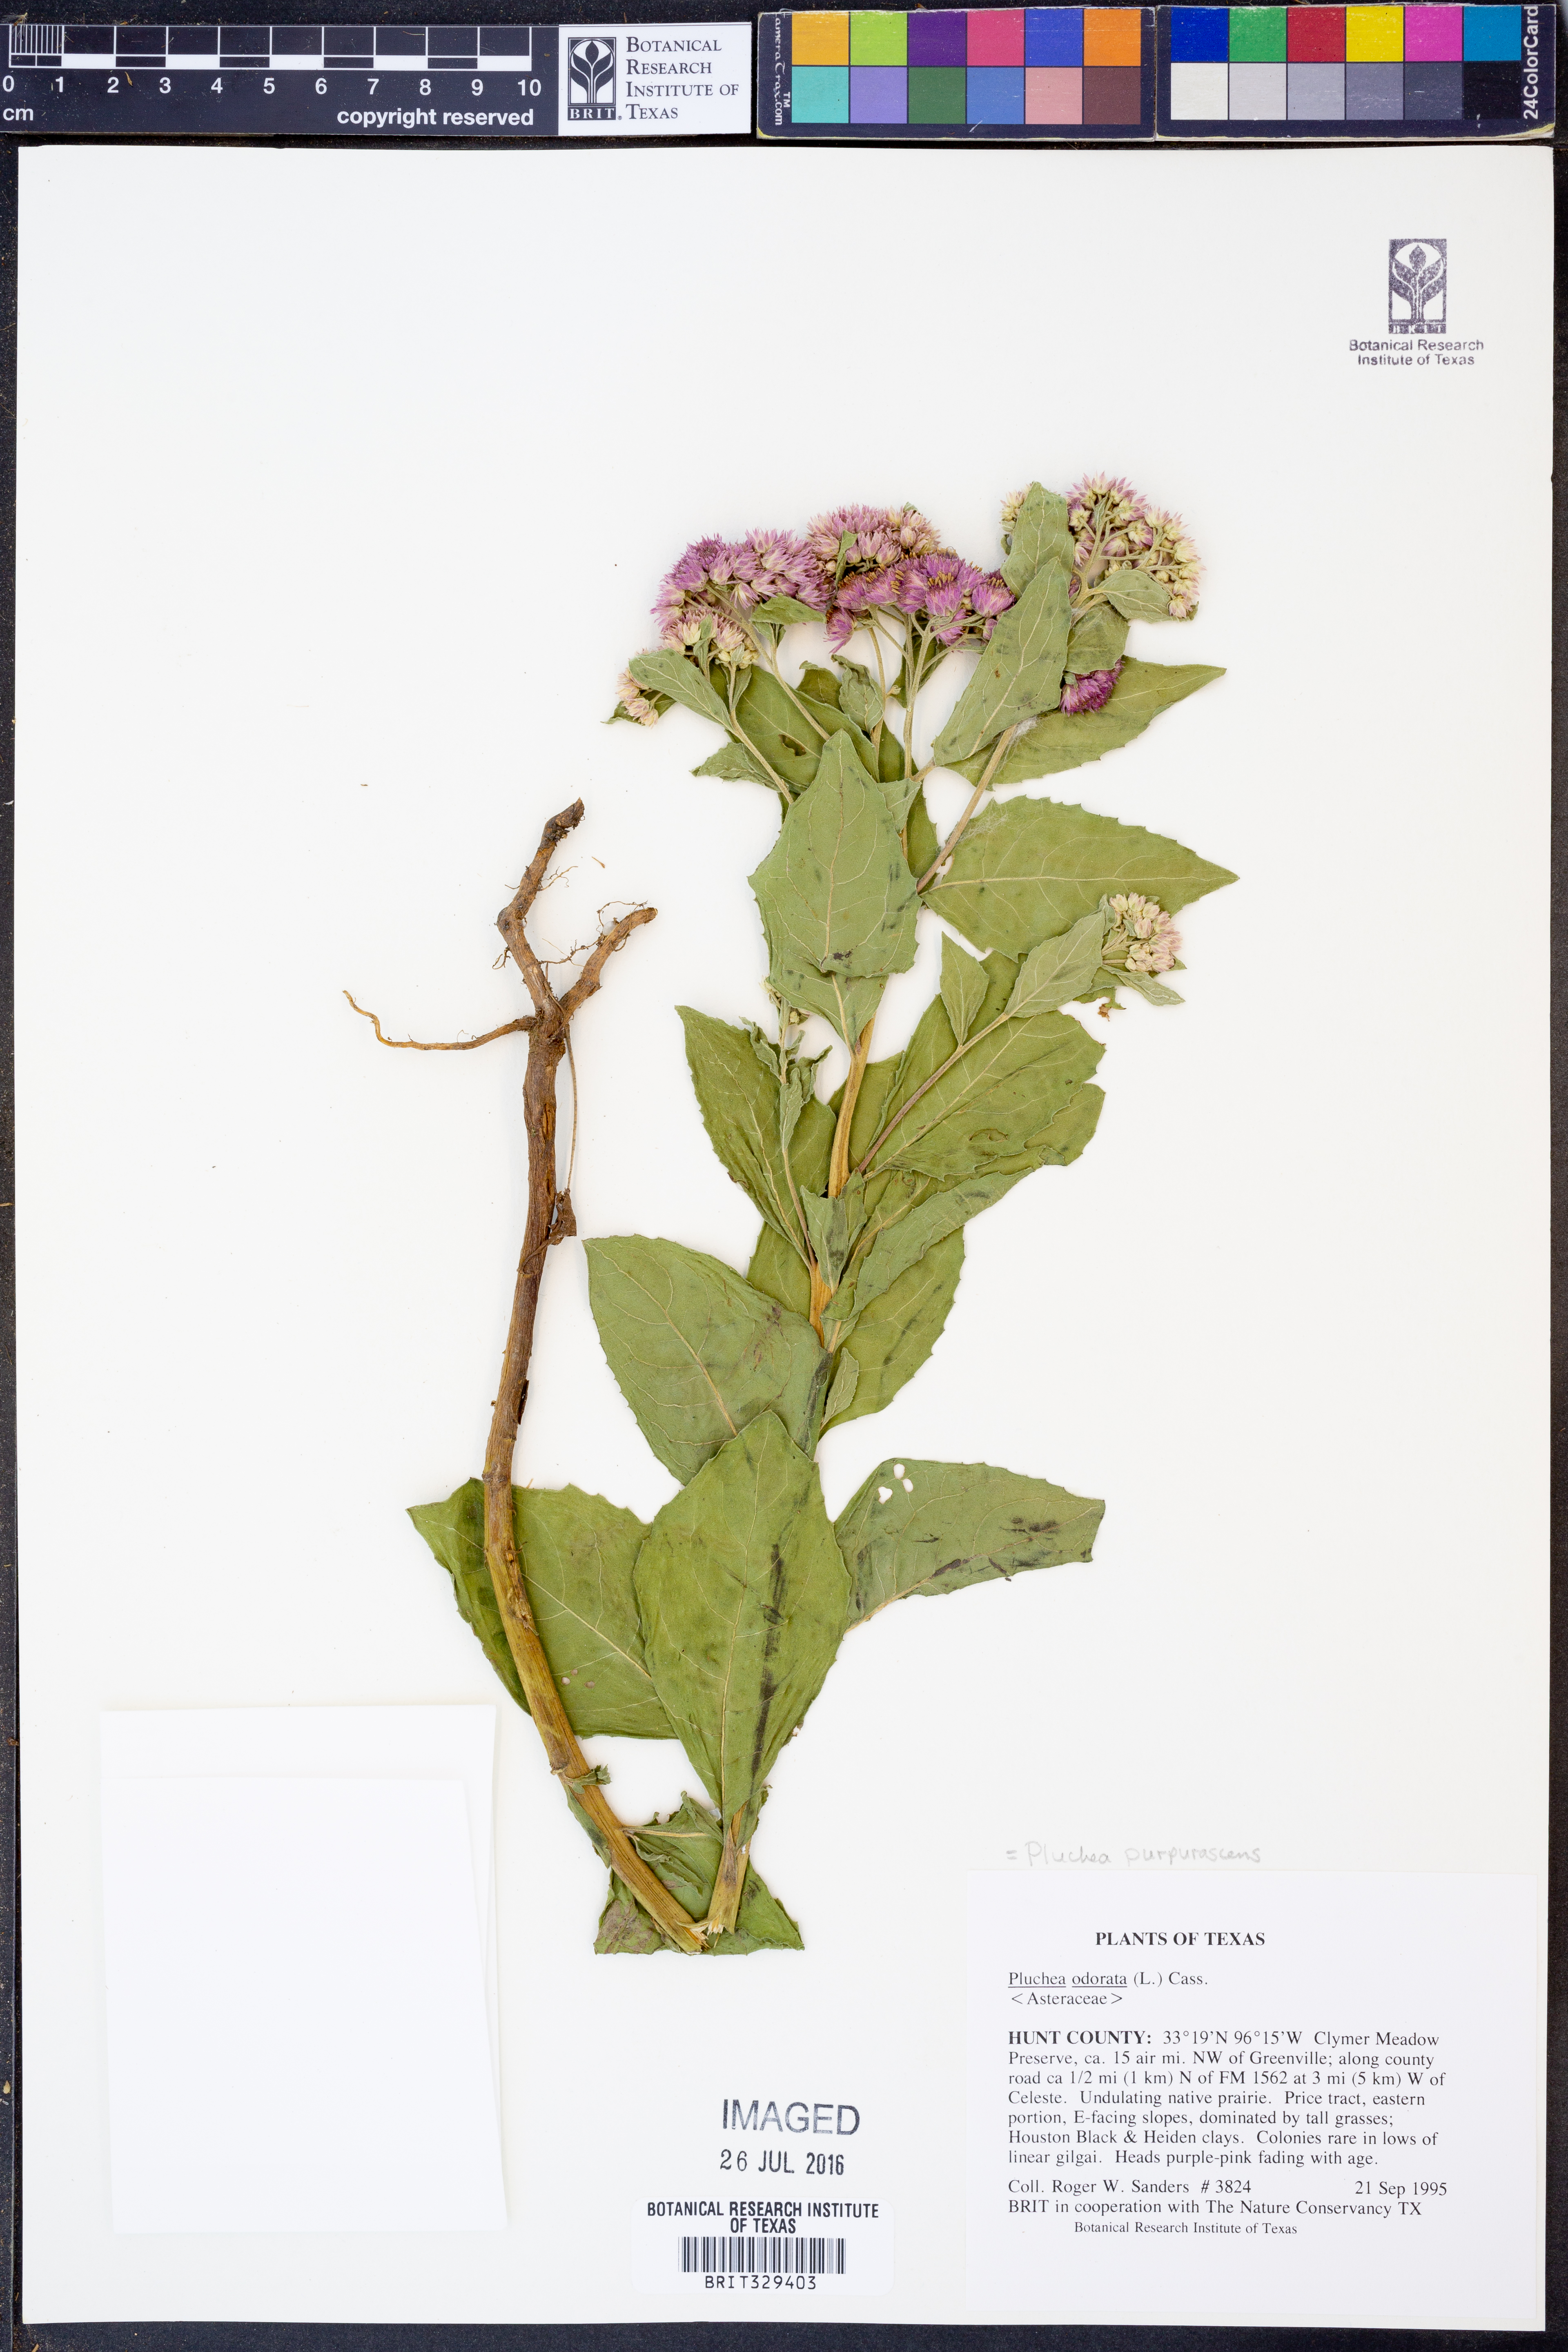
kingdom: Plantae
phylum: Tracheophyta
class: Magnoliopsida
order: Asterales
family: Asteraceae
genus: Pluchea
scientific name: Pluchea odorata
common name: Saltmarsh fleabane
